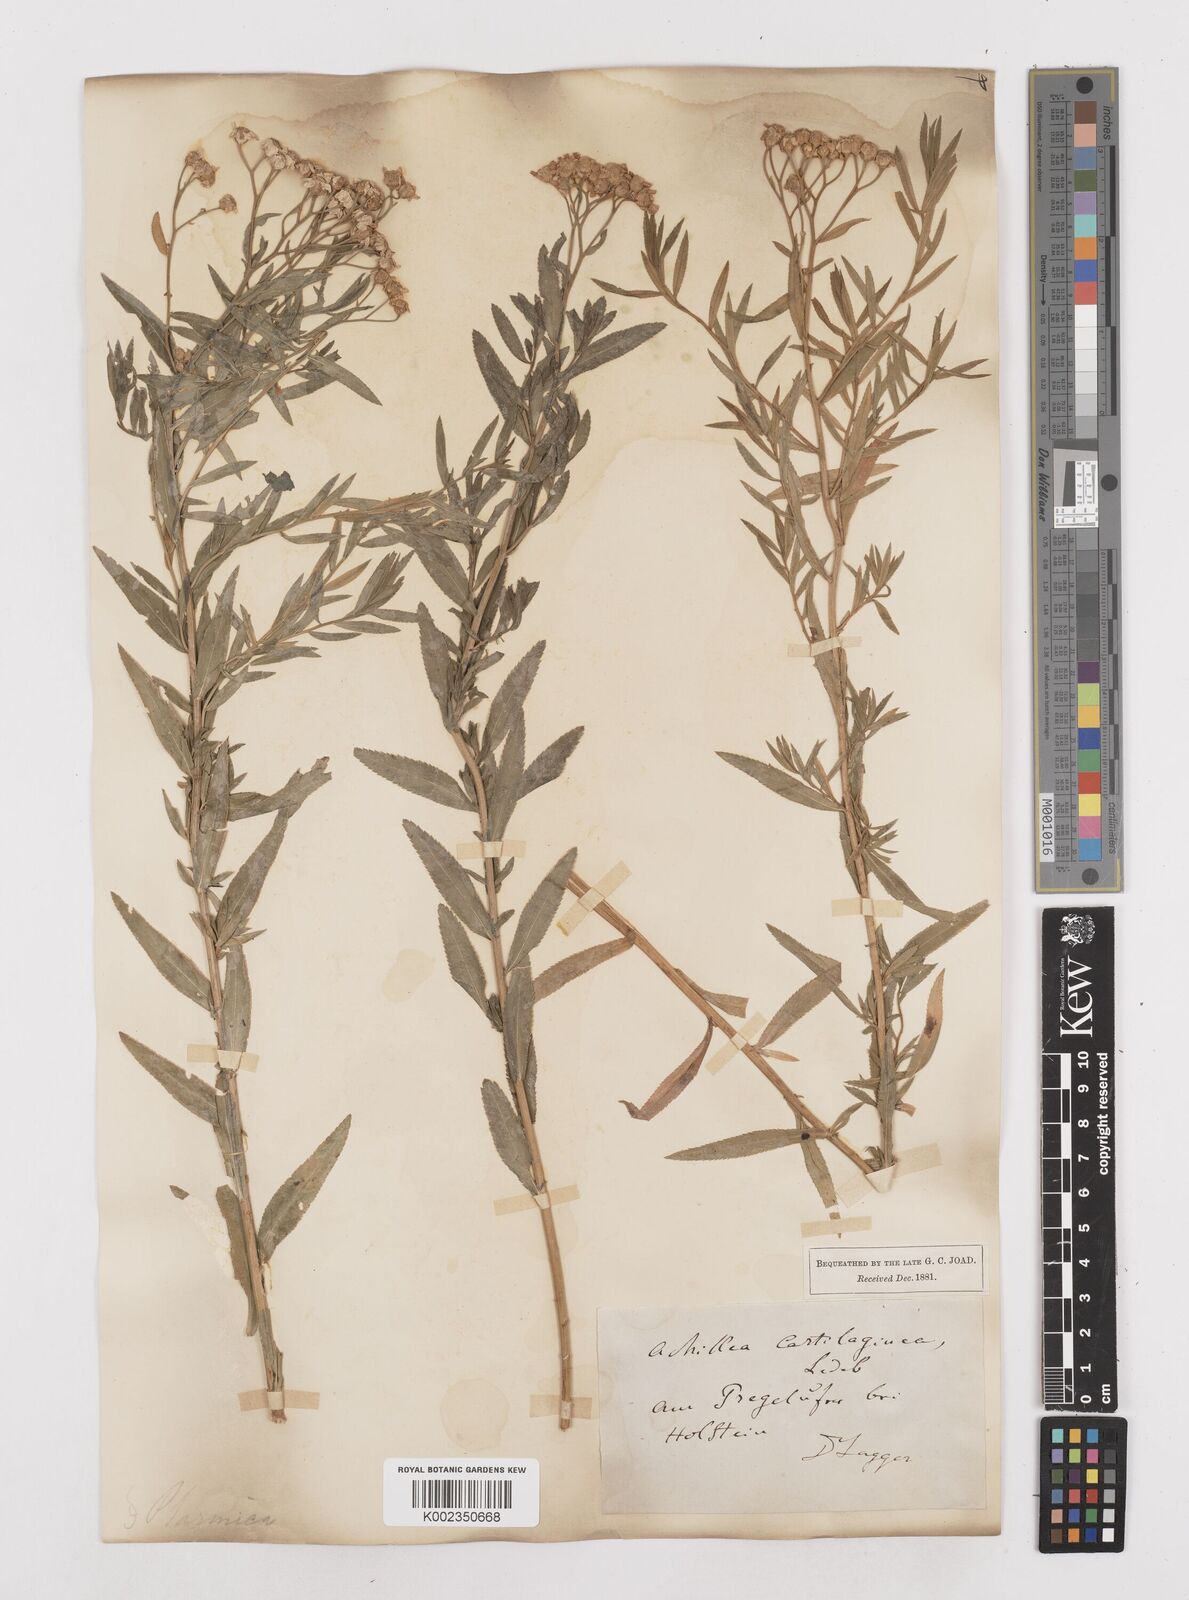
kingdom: Plantae
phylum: Tracheophyta
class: Magnoliopsida
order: Asterales
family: Asteraceae
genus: Achillea
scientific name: Achillea salicifolia
